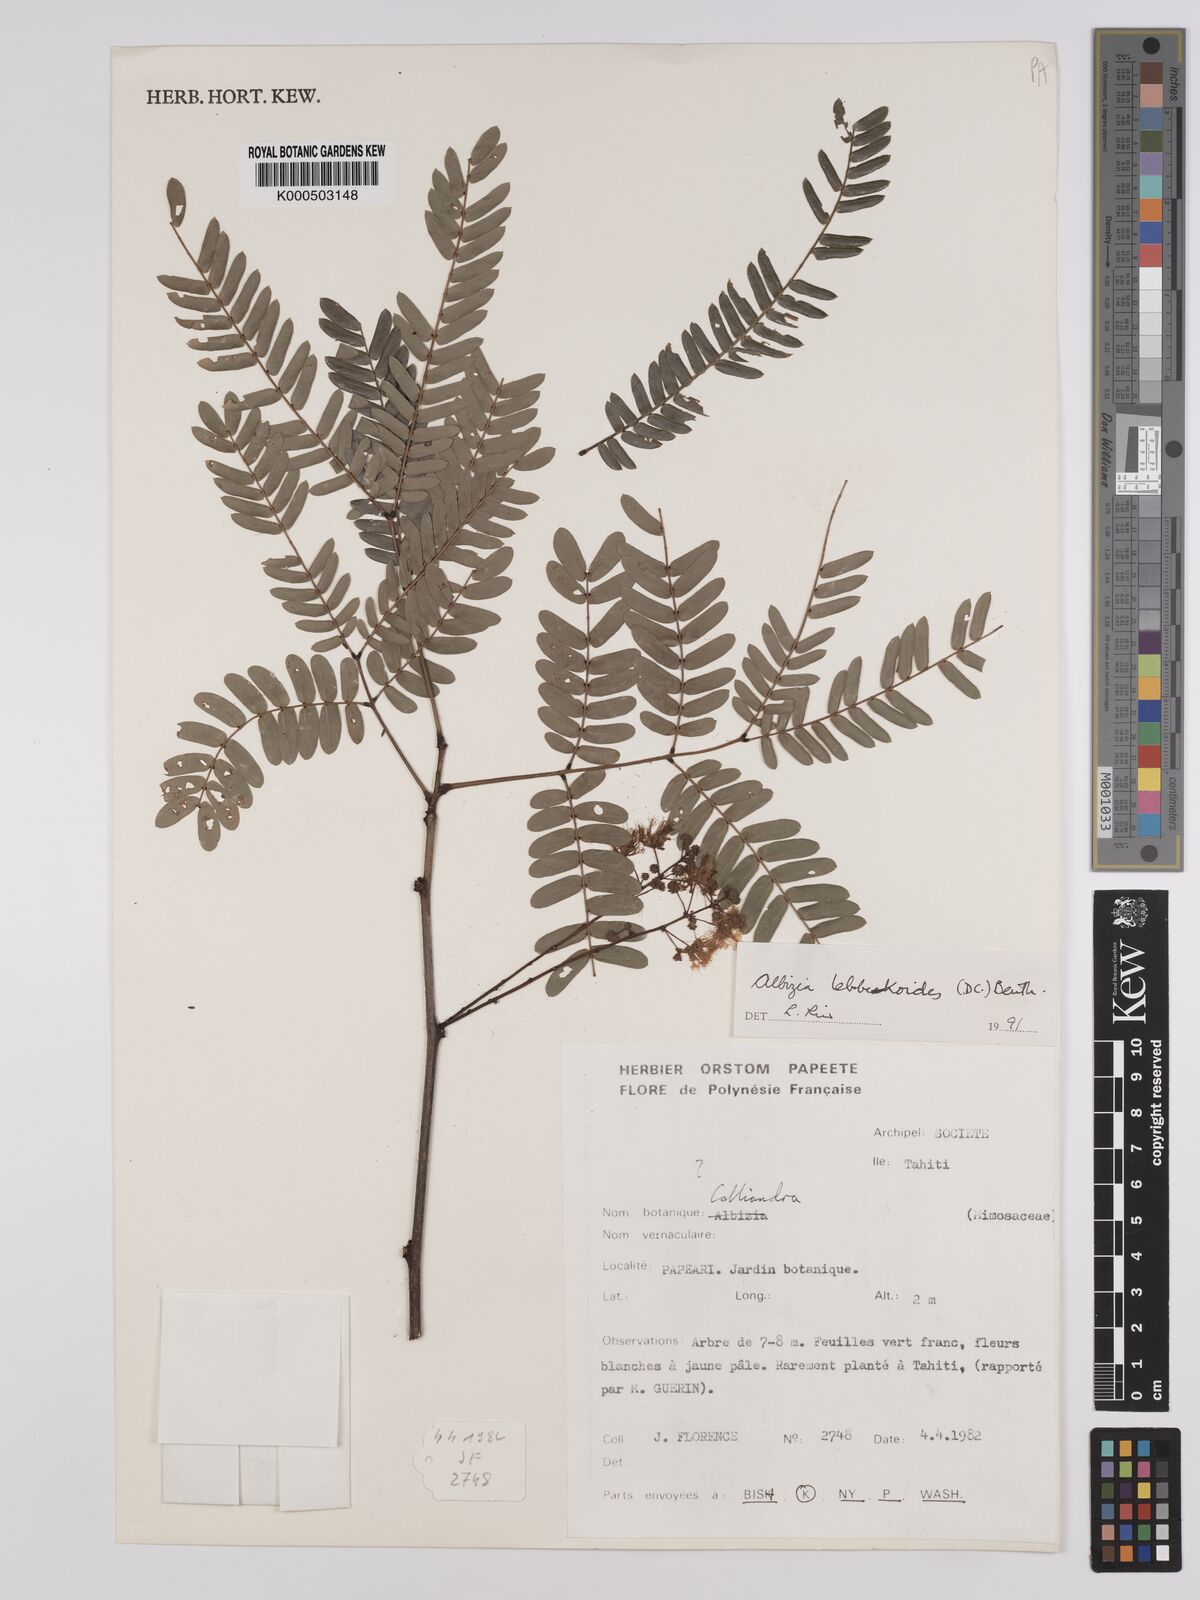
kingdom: Plantae
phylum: Tracheophyta
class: Magnoliopsida
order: Fabales
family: Fabaceae
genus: Albizia
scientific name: Albizia lebbekoides
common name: Indian albizia
